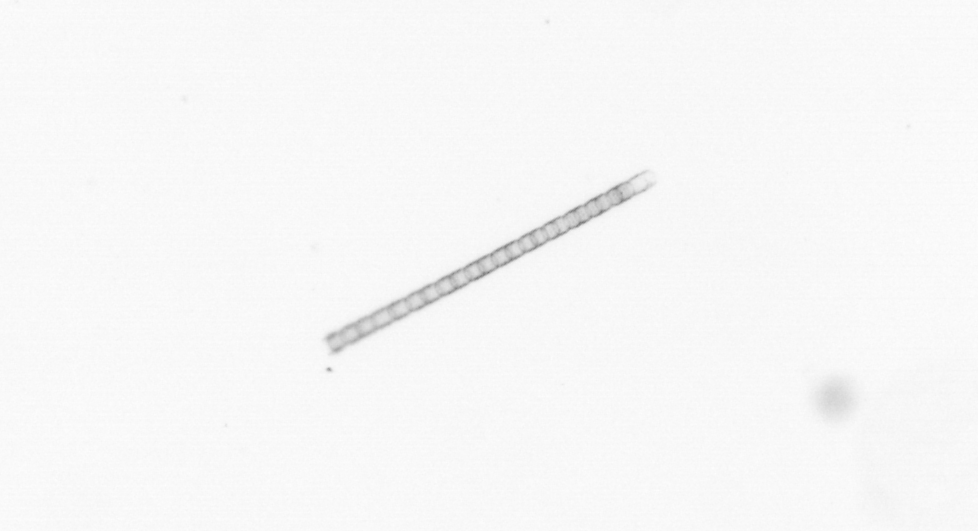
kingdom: Chromista
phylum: Ochrophyta
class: Bacillariophyceae
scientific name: Bacillariophyceae
